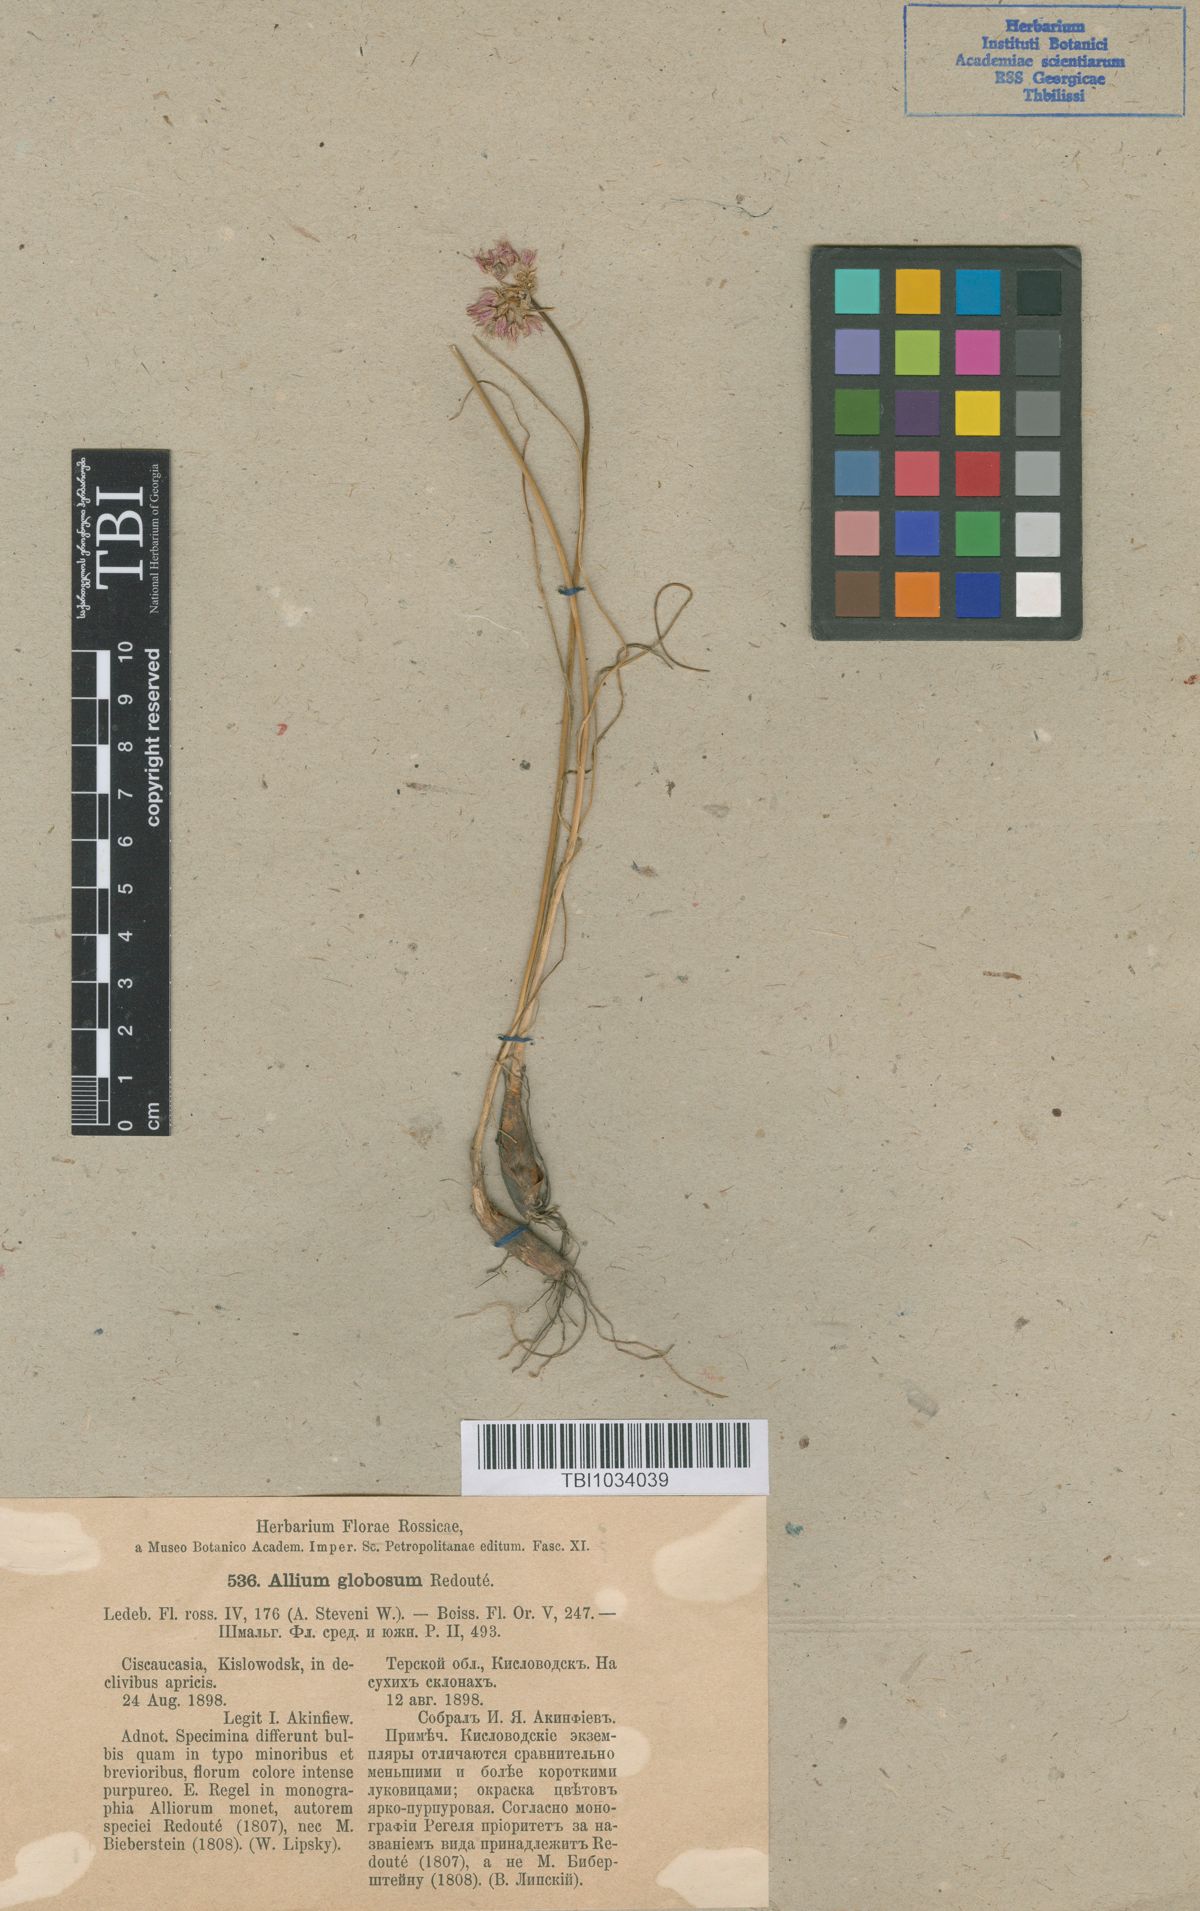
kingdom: Plantae
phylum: Tracheophyta
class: Liliopsida
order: Asparagales
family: Amaryllidaceae
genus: Allium
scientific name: Allium saxatile
